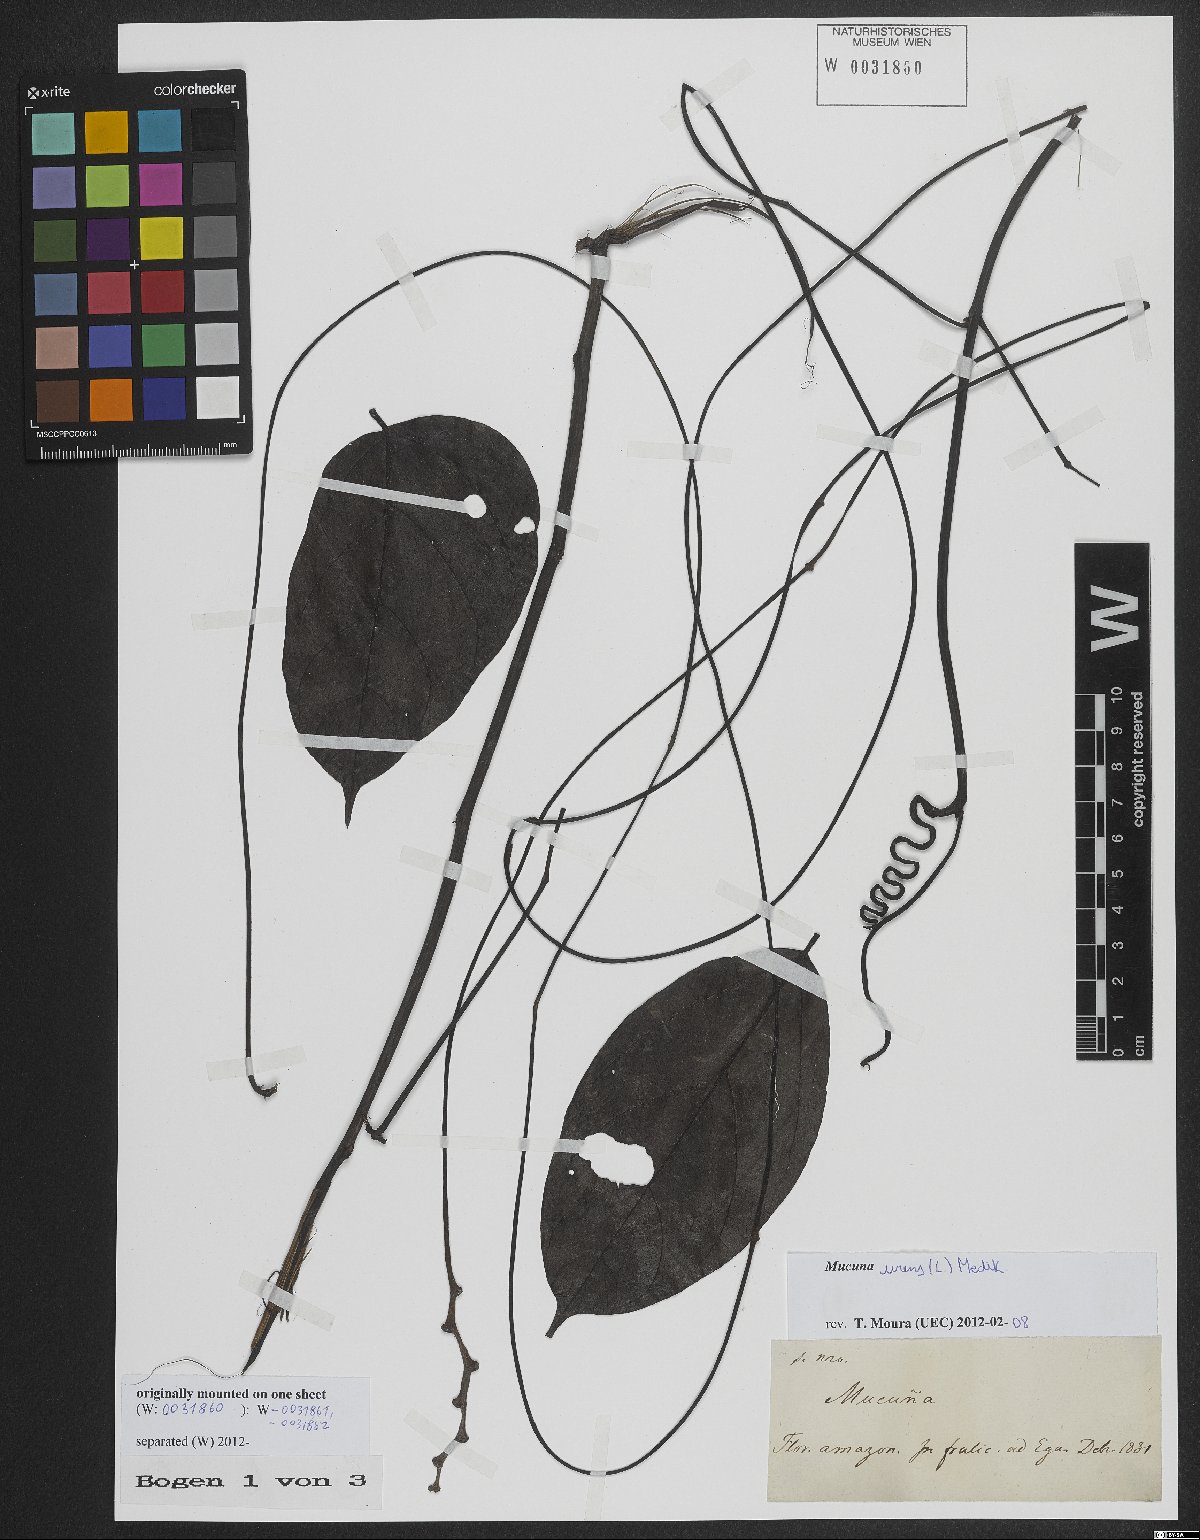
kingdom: Plantae
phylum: Tracheophyta
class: Magnoliopsida
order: Fabales
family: Fabaceae
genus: Mucuna
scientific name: Mucuna urens
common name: Red hamburger bean
